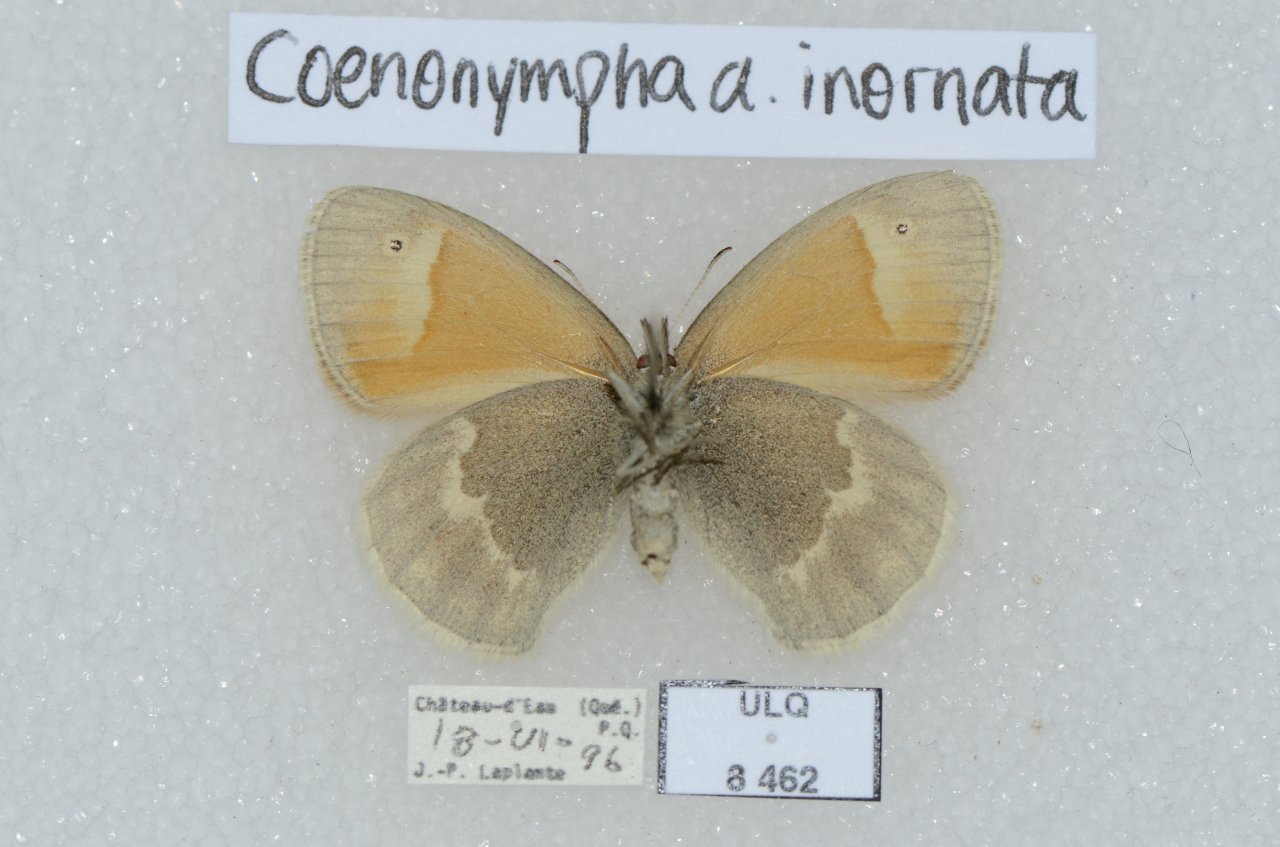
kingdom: Animalia
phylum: Arthropoda
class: Insecta
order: Lepidoptera
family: Nymphalidae
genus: Coenonympha
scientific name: Coenonympha tullia
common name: Large Heath
